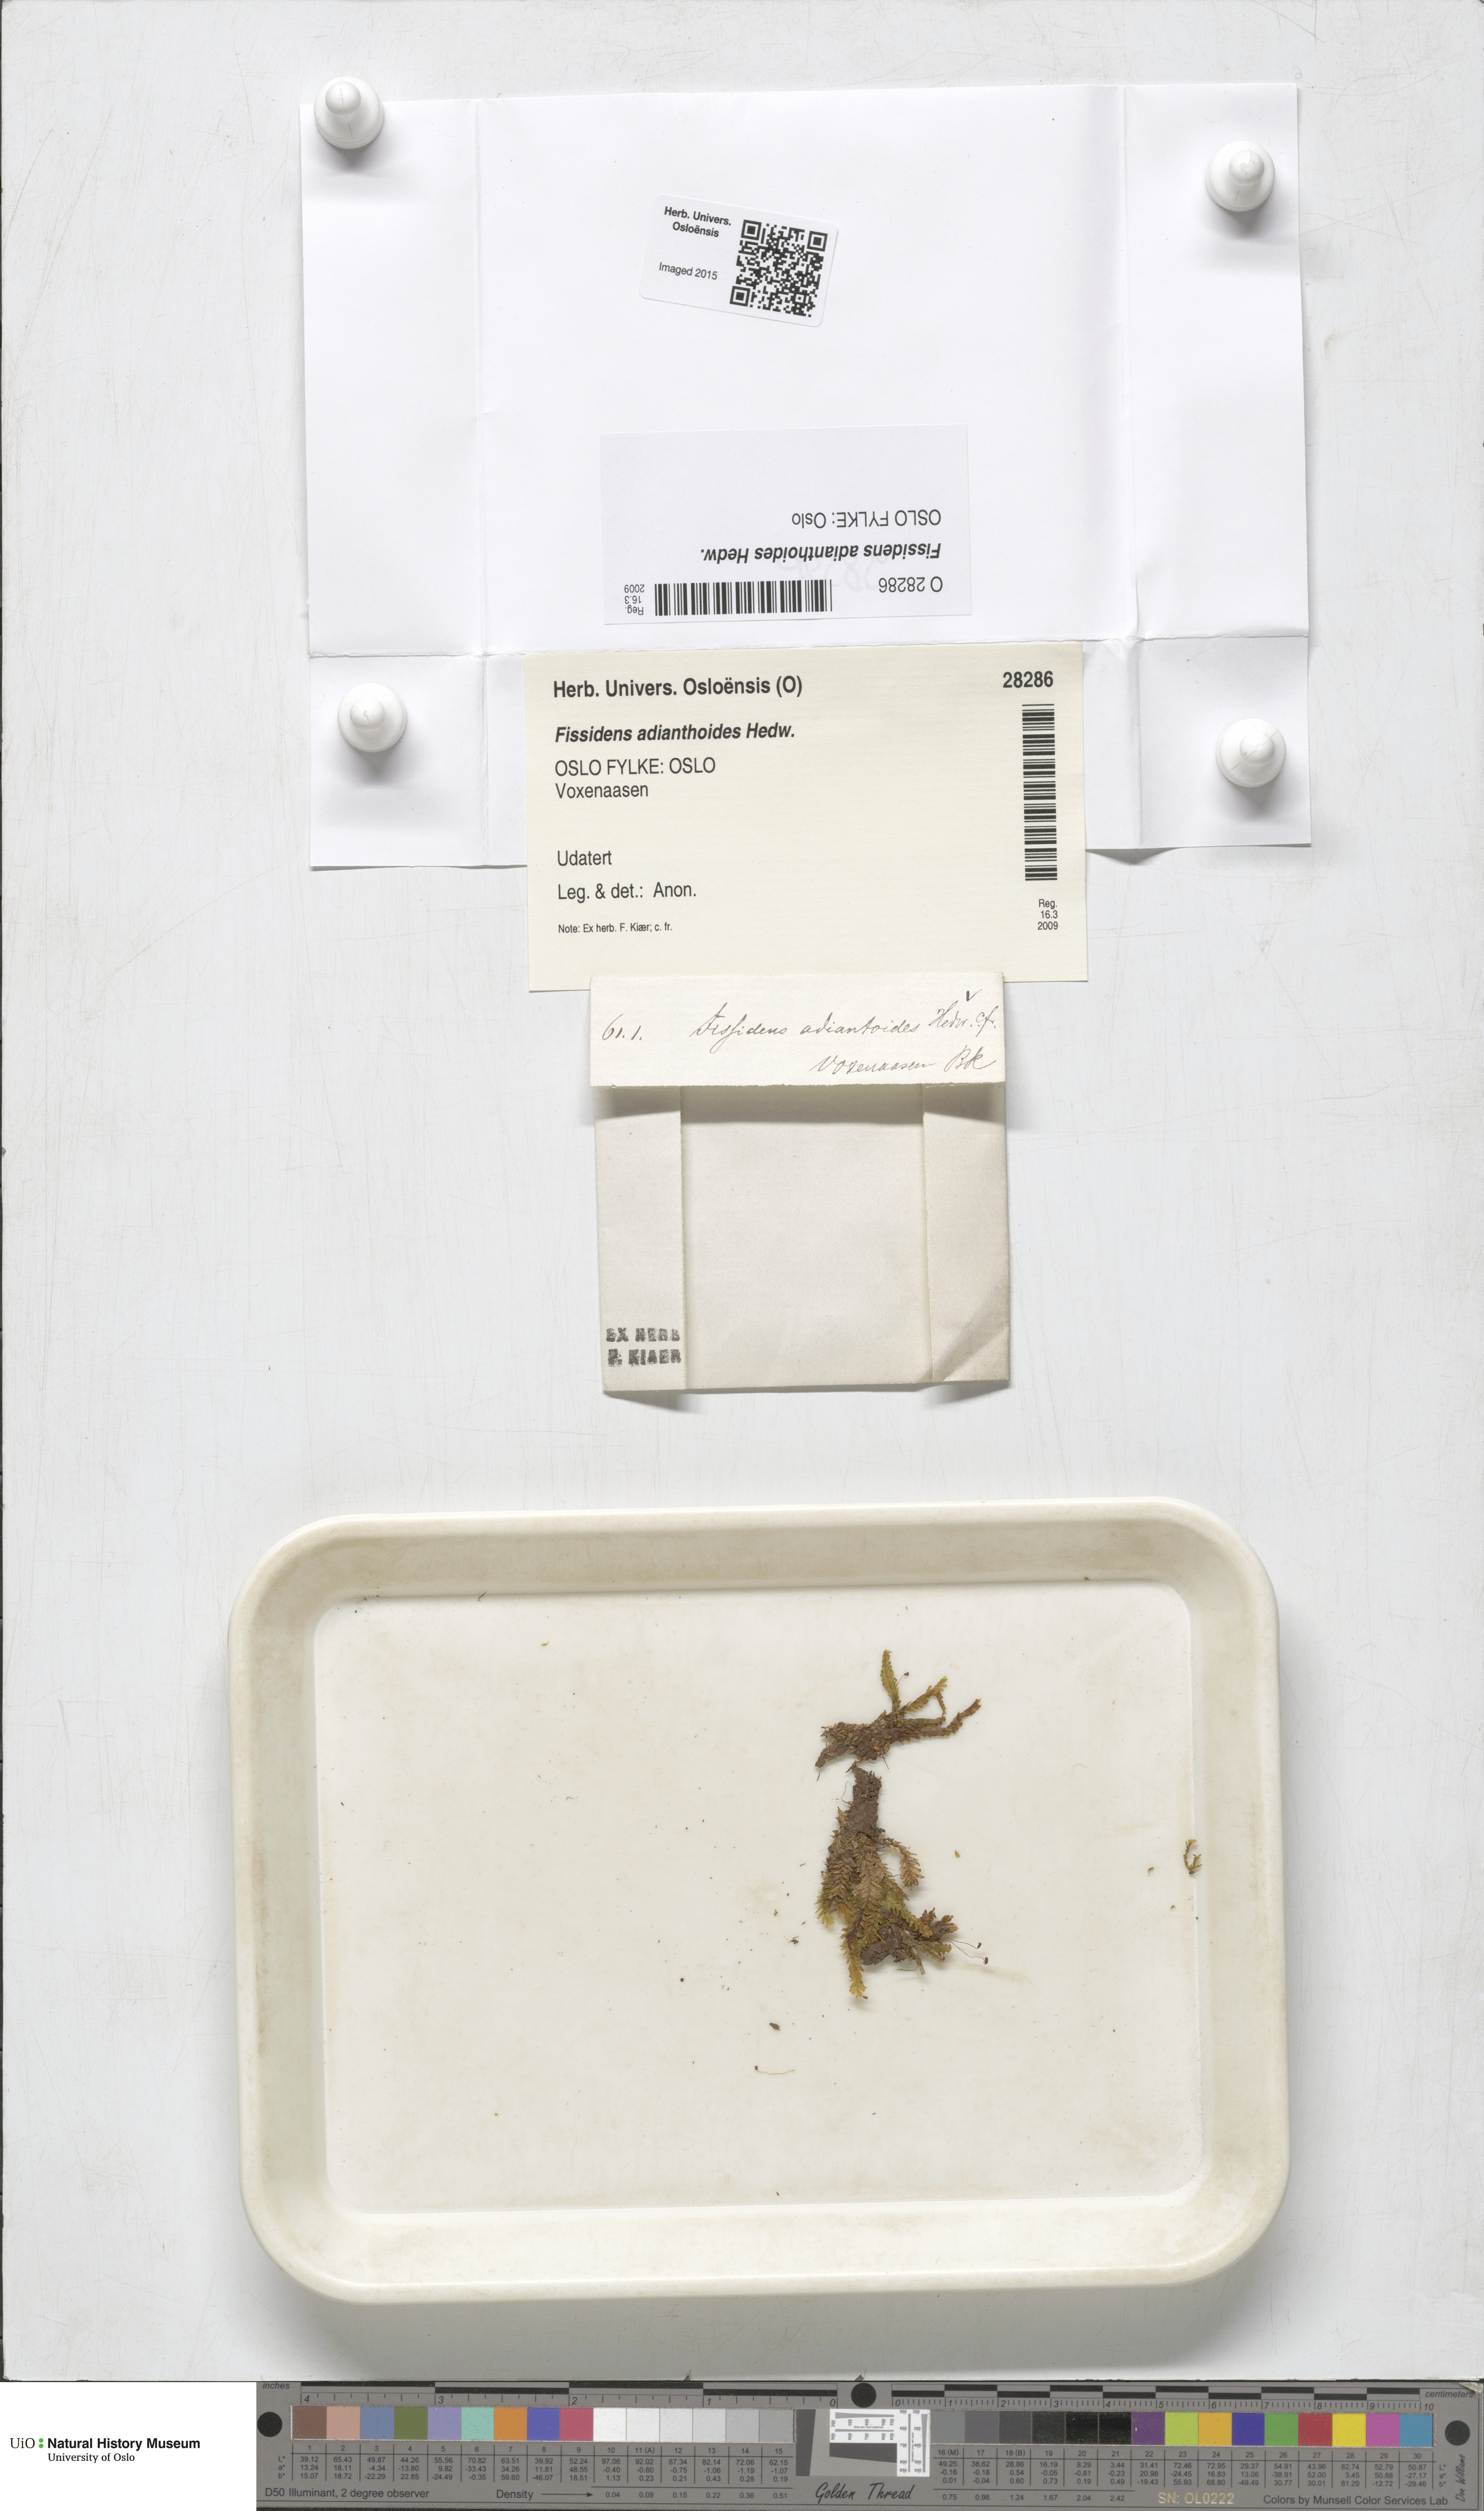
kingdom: Plantae
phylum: Bryophyta
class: Bryopsida
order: Dicranales
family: Fissidentaceae
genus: Fissidens
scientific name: Fissidens adianthoides
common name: Maidenhair pocket moss
